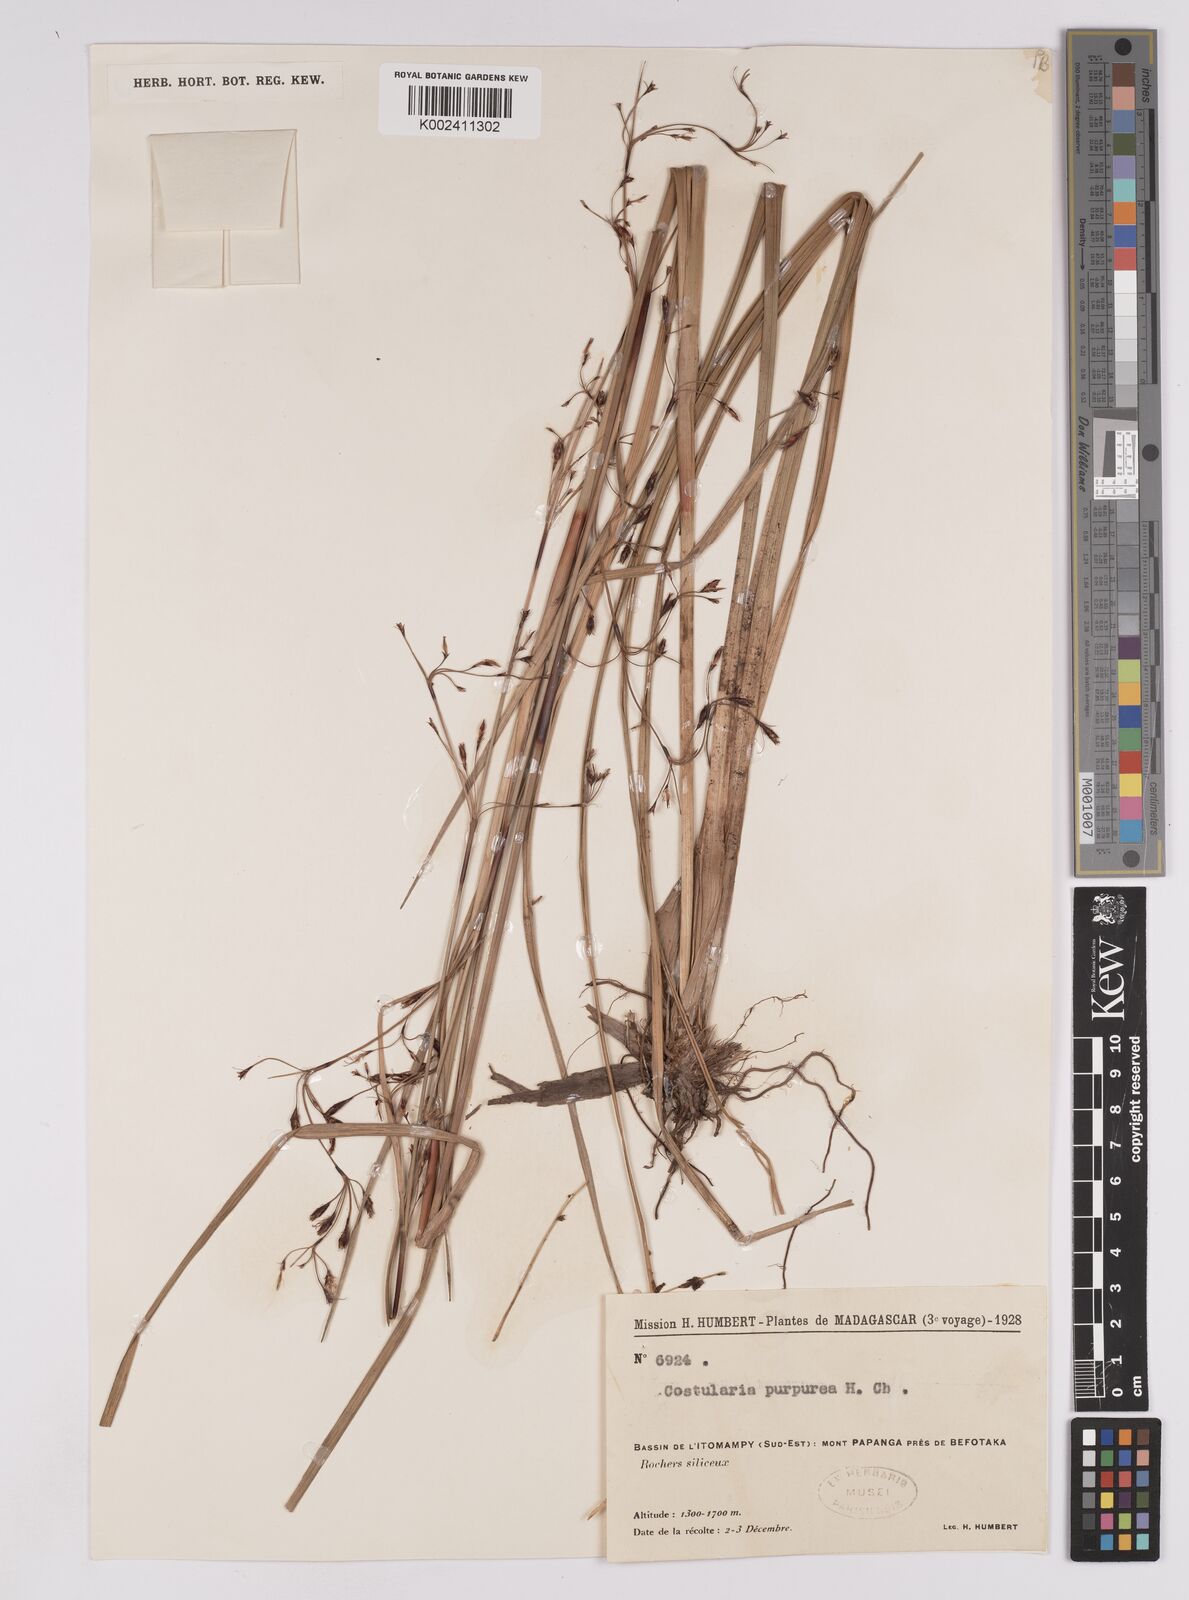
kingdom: Plantae
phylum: Tracheophyta
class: Liliopsida
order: Poales
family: Cyperaceae
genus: Costularia
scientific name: Costularia purpurea
